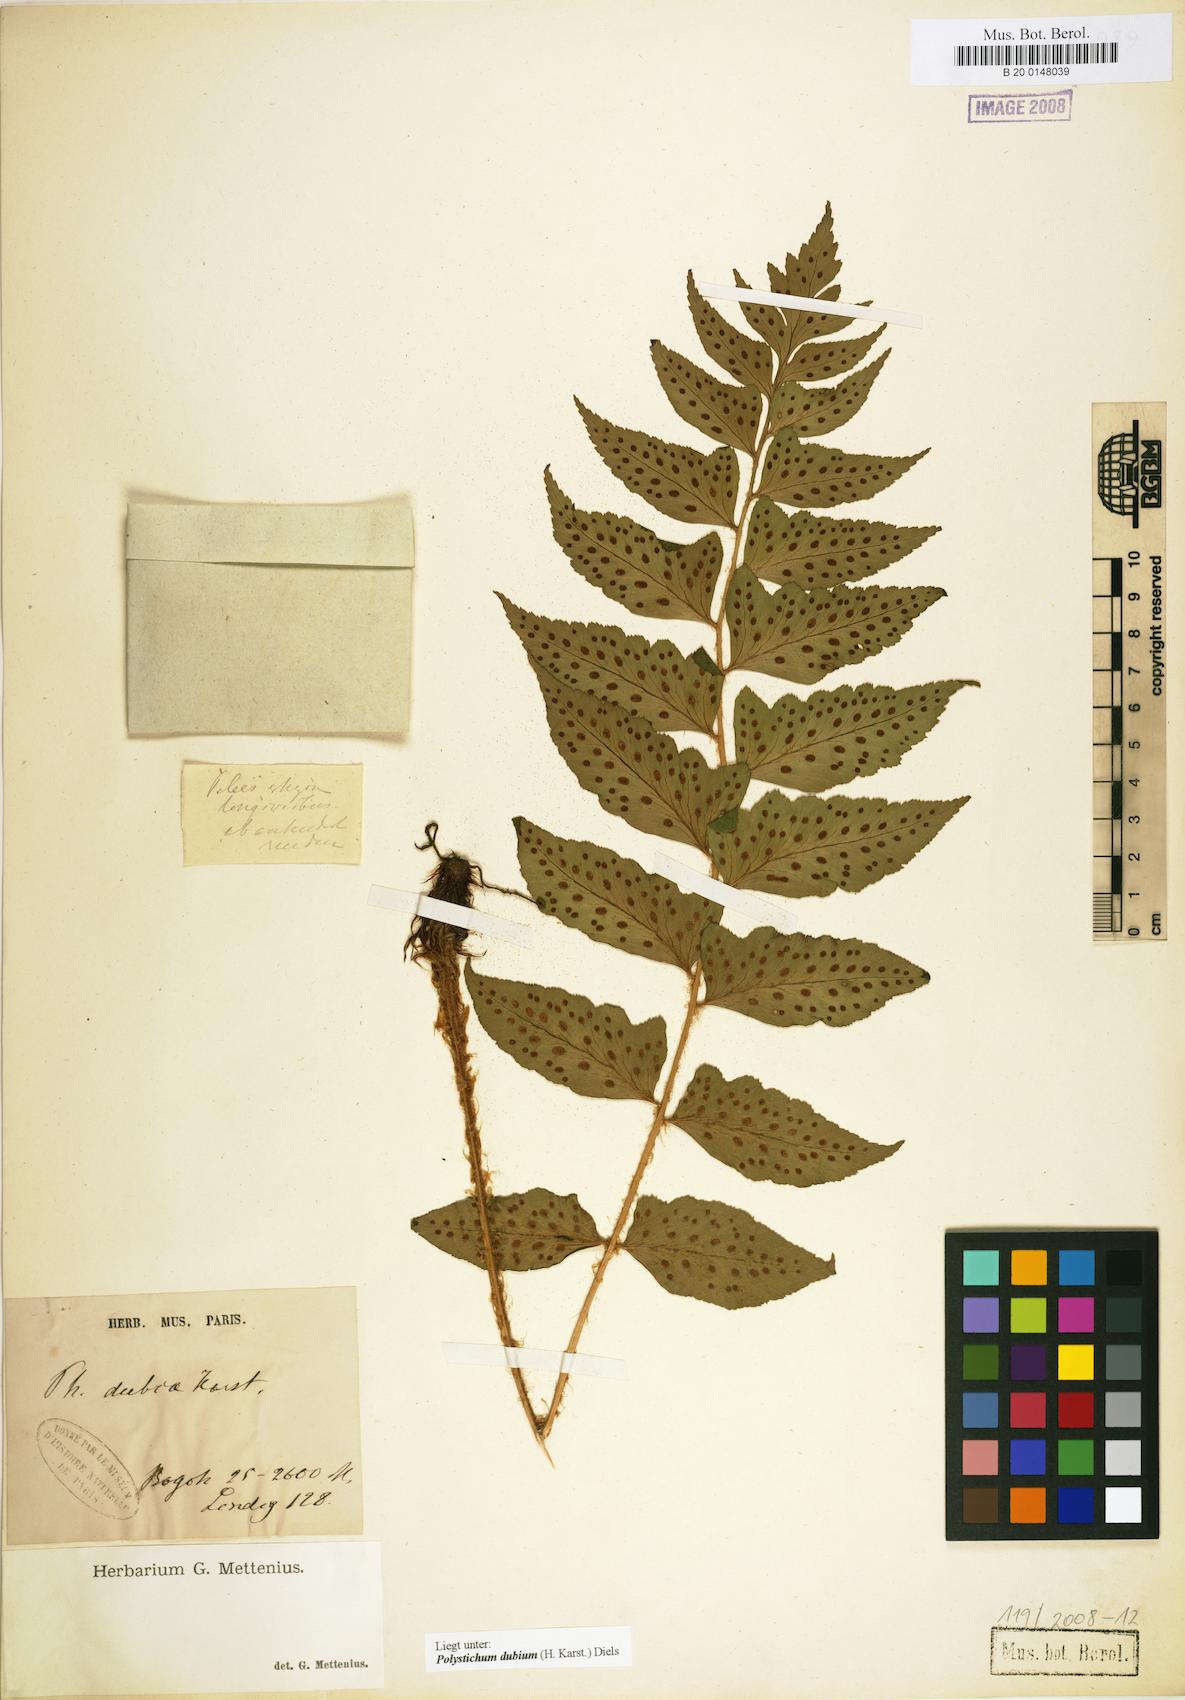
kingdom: Plantae
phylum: Tracheophyta
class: Polypodiopsida
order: Polypodiales
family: Dryopteridaceae
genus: Polystichum
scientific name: Polystichum dubium
